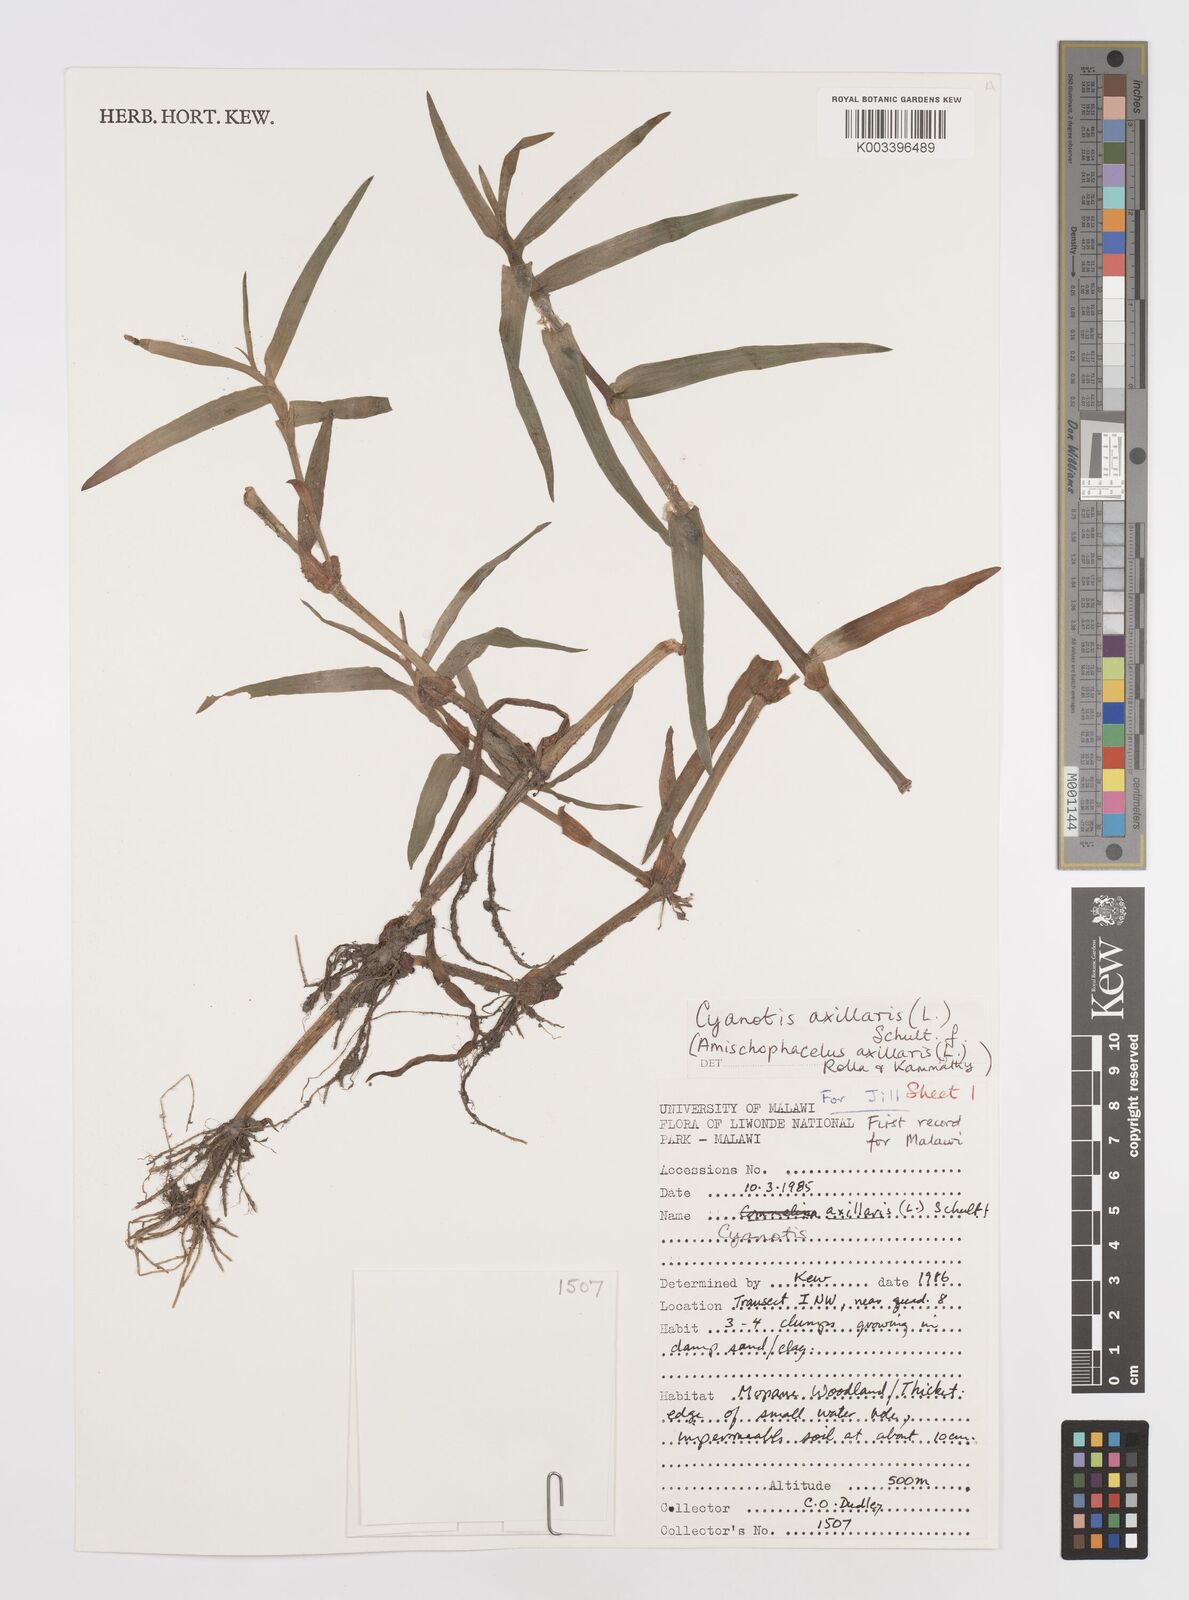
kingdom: Plantae
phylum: Tracheophyta
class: Liliopsida
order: Commelinales
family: Commelinaceae
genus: Cyanotis
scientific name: Cyanotis axillaris
